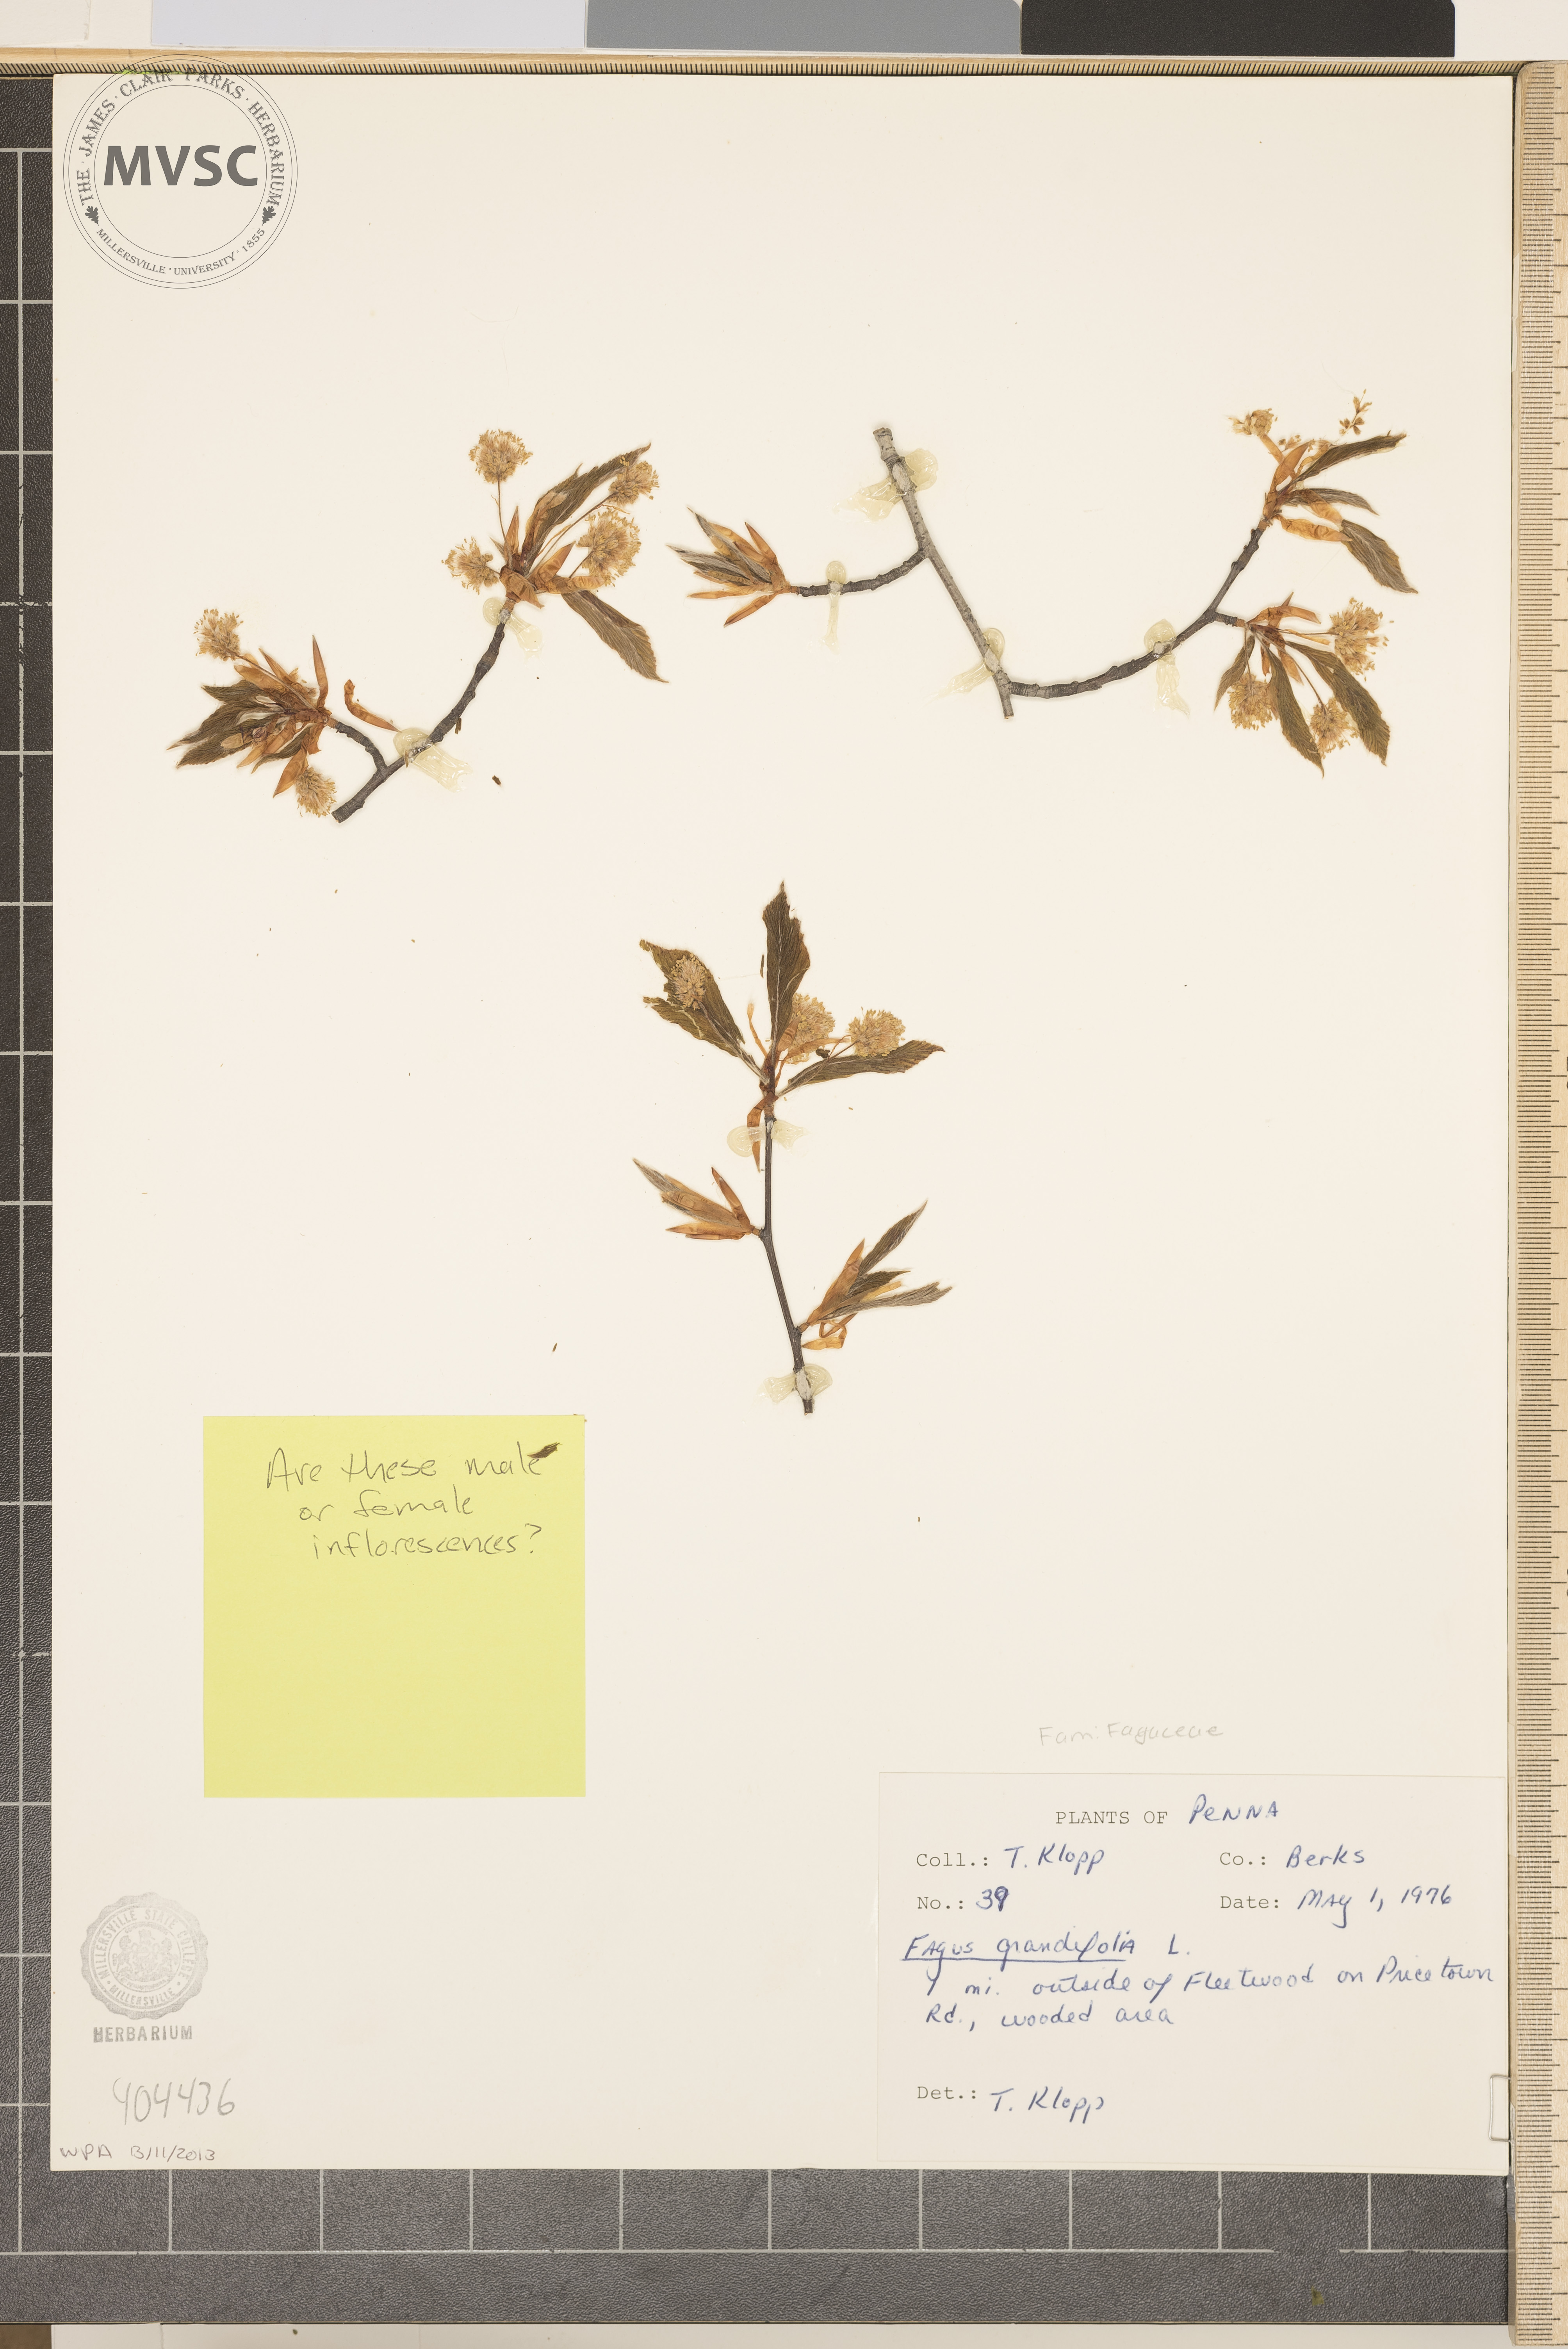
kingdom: Plantae
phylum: Tracheophyta
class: Magnoliopsida
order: Fagales
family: Fagaceae
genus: Fagus
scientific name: Fagus grandifolia
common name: American beech
